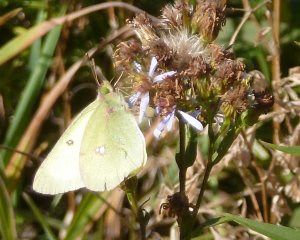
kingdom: Animalia
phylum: Arthropoda
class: Insecta
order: Lepidoptera
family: Pieridae
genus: Colias
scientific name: Colias philodice
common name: Clouded Sulphur
